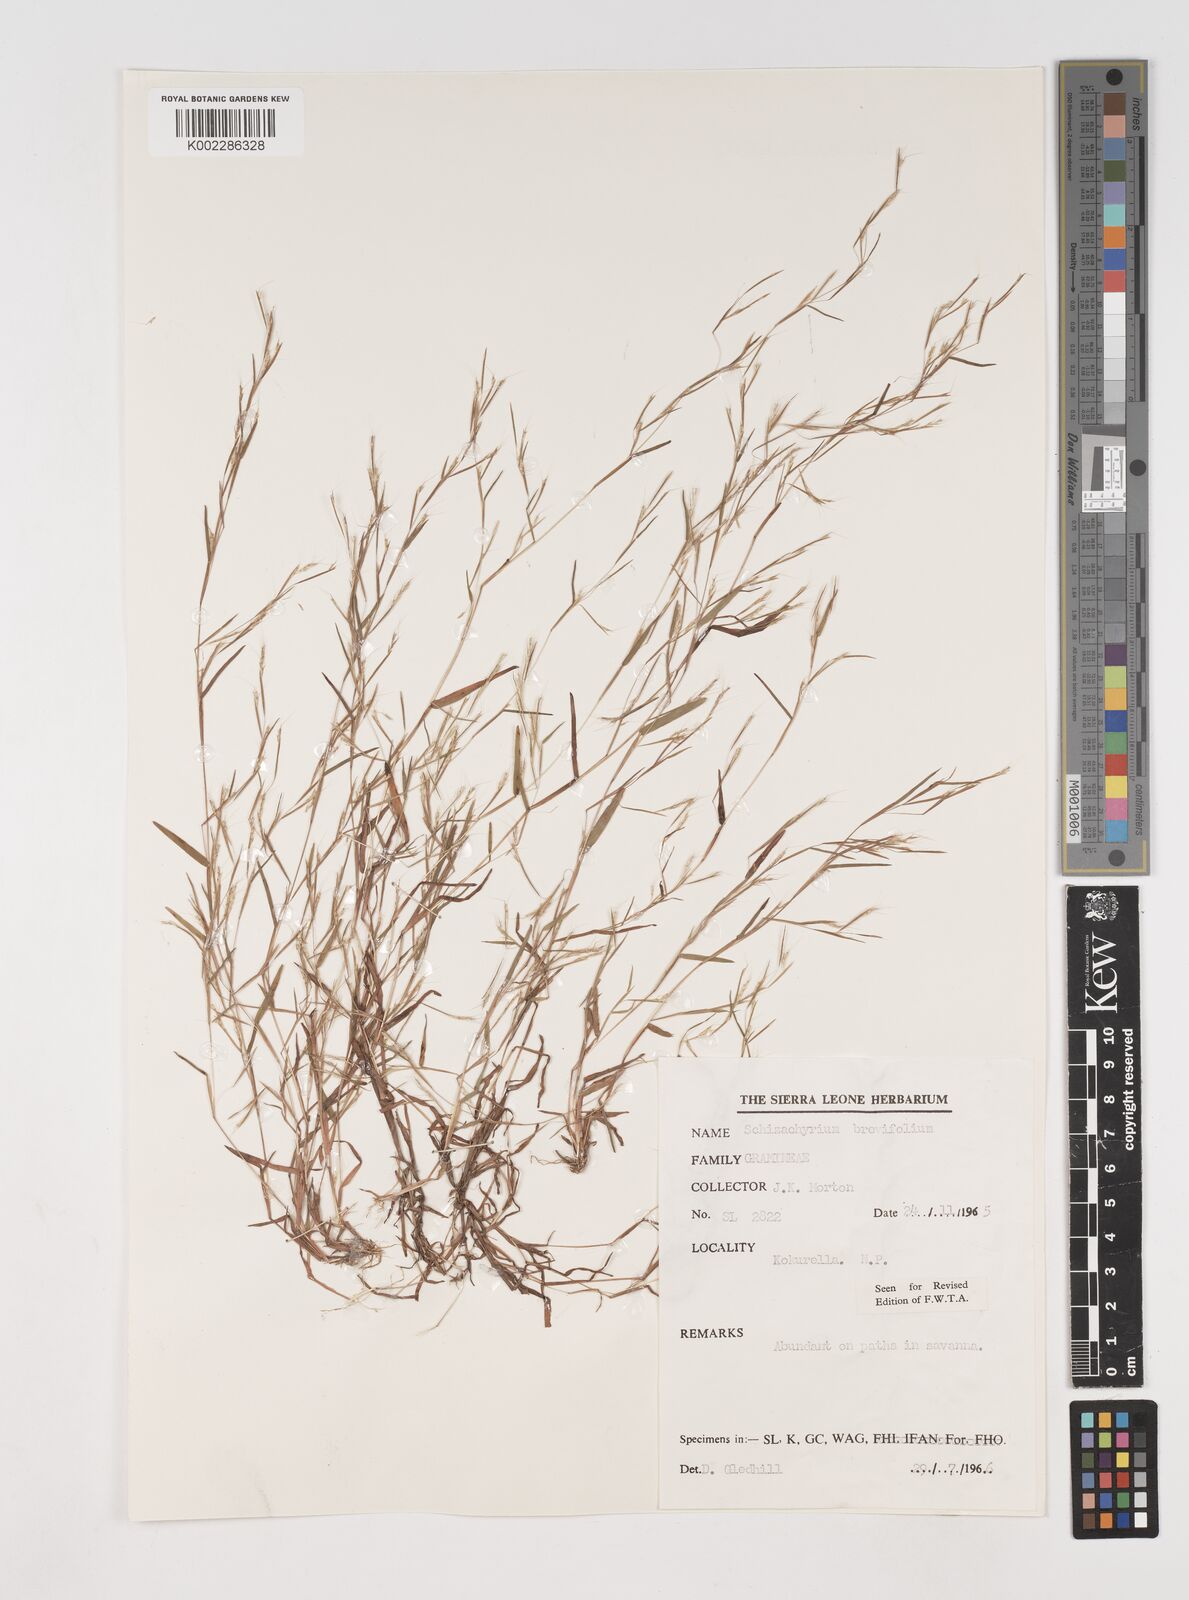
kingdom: Plantae
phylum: Tracheophyta
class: Liliopsida
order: Poales
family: Poaceae
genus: Schizachyrium
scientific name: Schizachyrium brevifolium
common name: Serillo dulce
